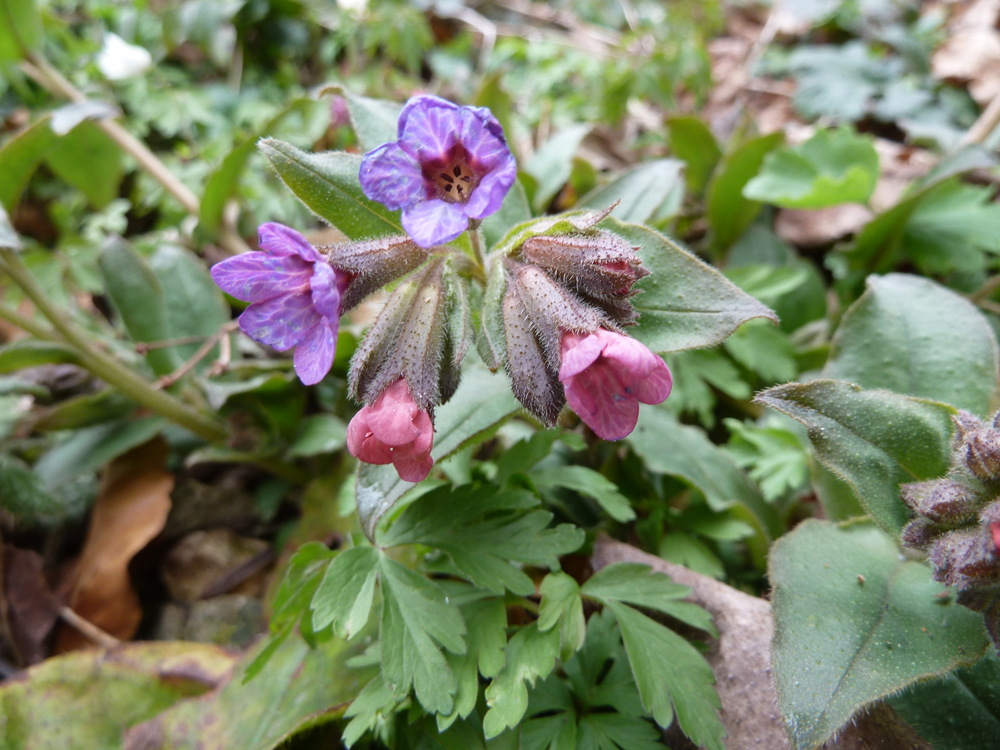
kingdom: Plantae
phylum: Tracheophyta
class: Magnoliopsida
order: Boraginales
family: Boraginaceae
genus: Pulmonaria
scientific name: Pulmonaria officinalis
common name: Lungwort
